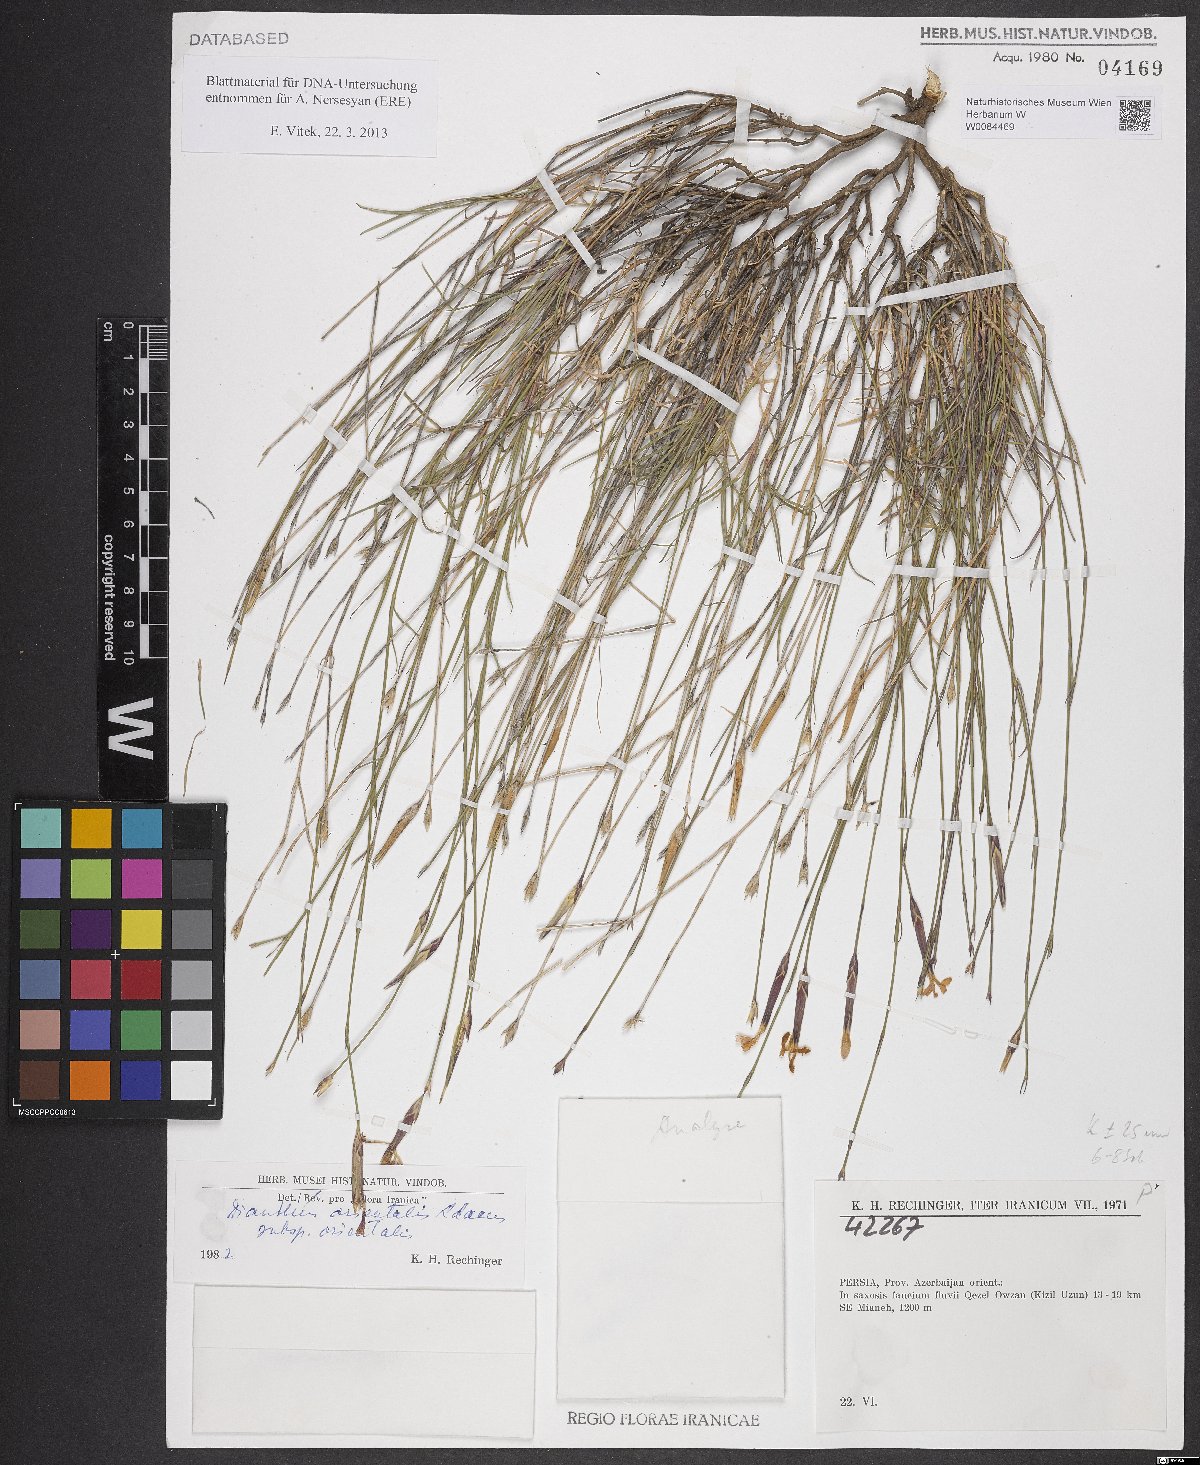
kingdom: Plantae
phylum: Tracheophyta
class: Magnoliopsida
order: Caryophyllales
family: Caryophyllaceae
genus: Dianthus
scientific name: Dianthus orientalis
